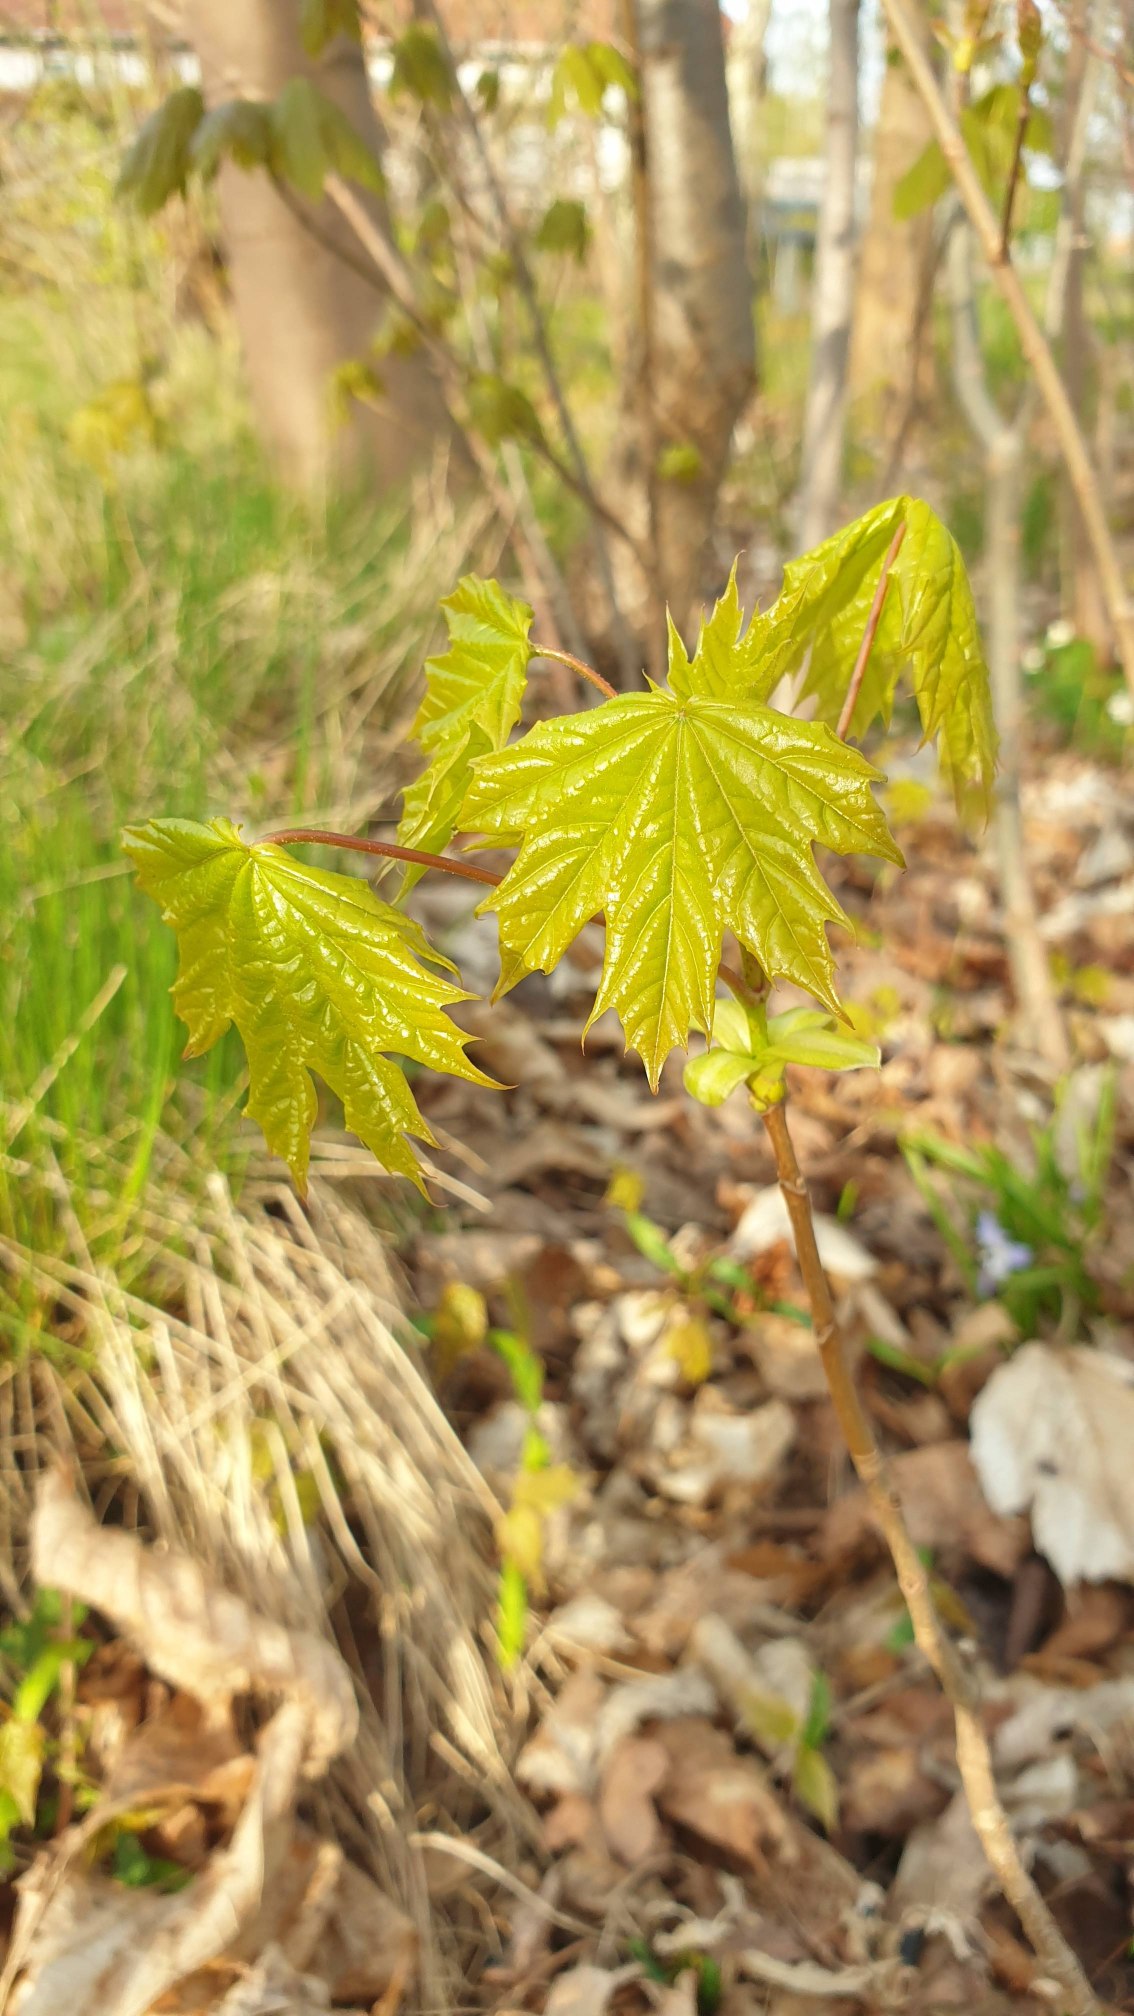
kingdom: Plantae
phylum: Tracheophyta
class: Magnoliopsida
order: Sapindales
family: Sapindaceae
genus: Acer
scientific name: Acer platanoides
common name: Spids-løn
